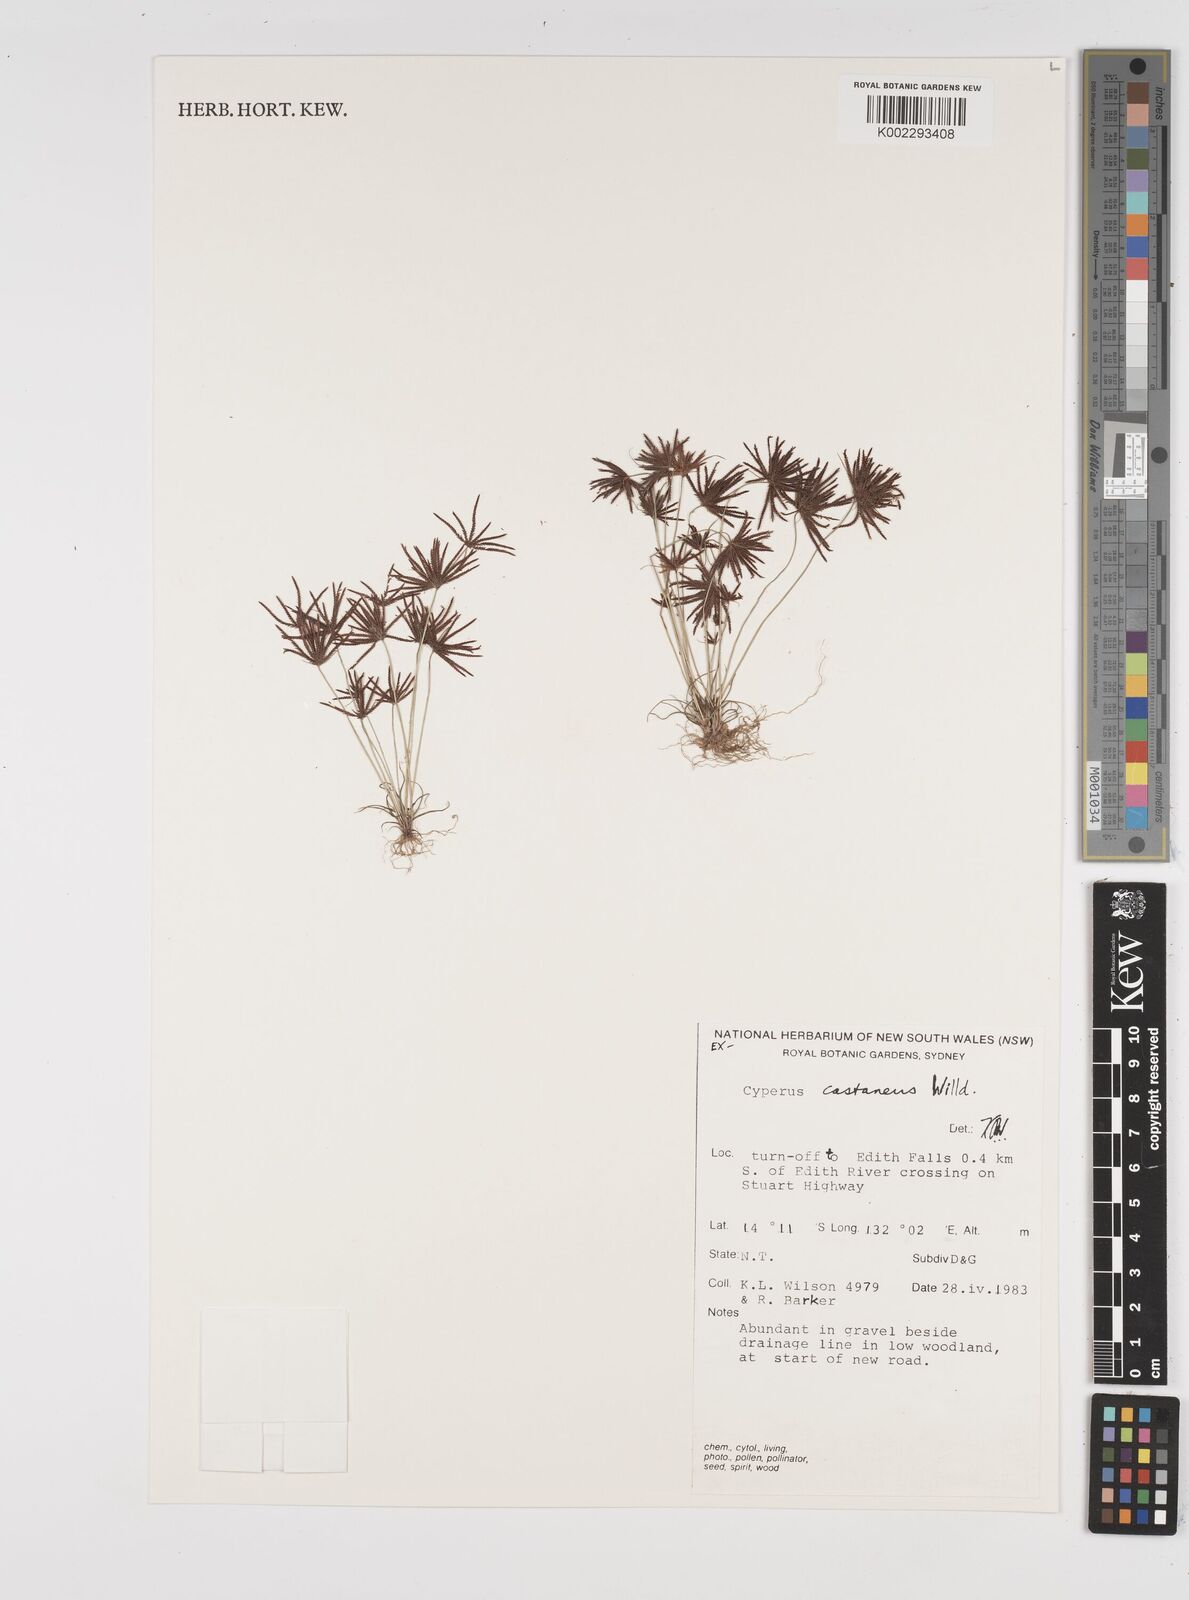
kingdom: Plantae
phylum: Tracheophyta
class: Liliopsida
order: Poales
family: Cyperaceae
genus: Cyperus
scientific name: Cyperus castaneus
